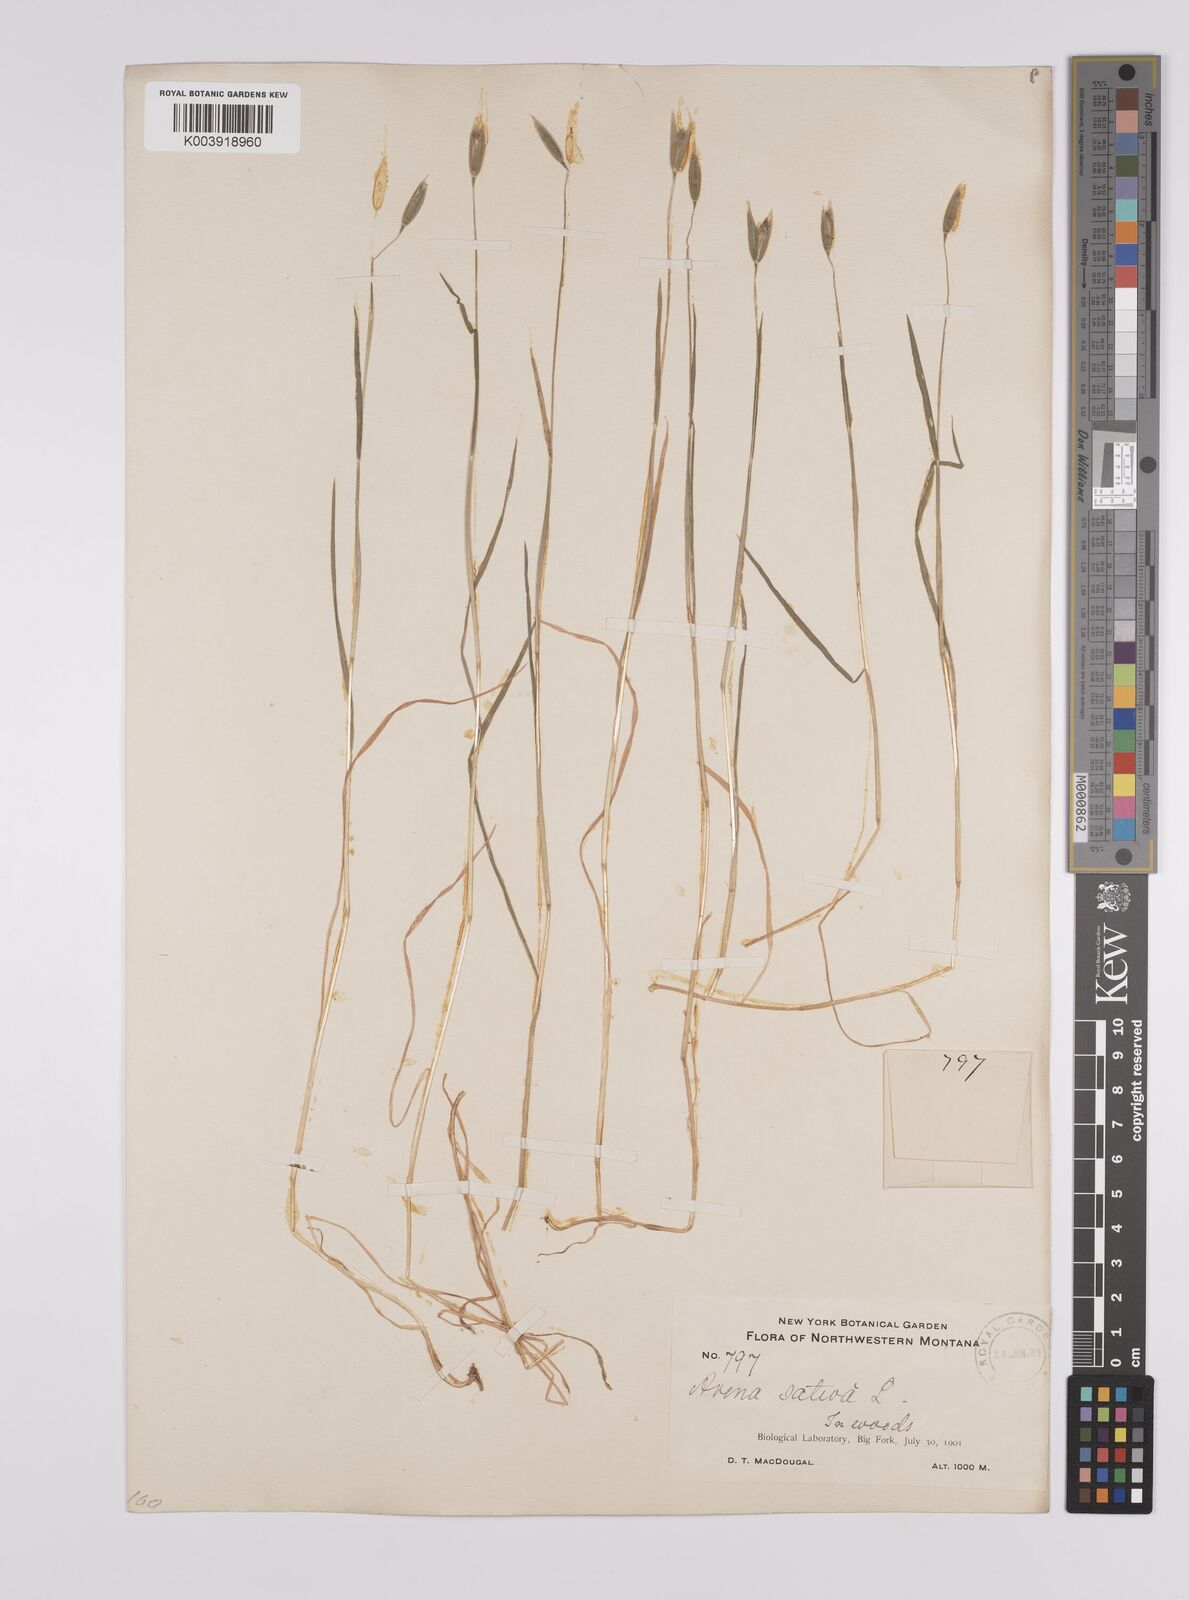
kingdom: Plantae
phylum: Tracheophyta
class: Liliopsida
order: Poales
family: Poaceae
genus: Avena
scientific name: Avena sativa
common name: Oat
